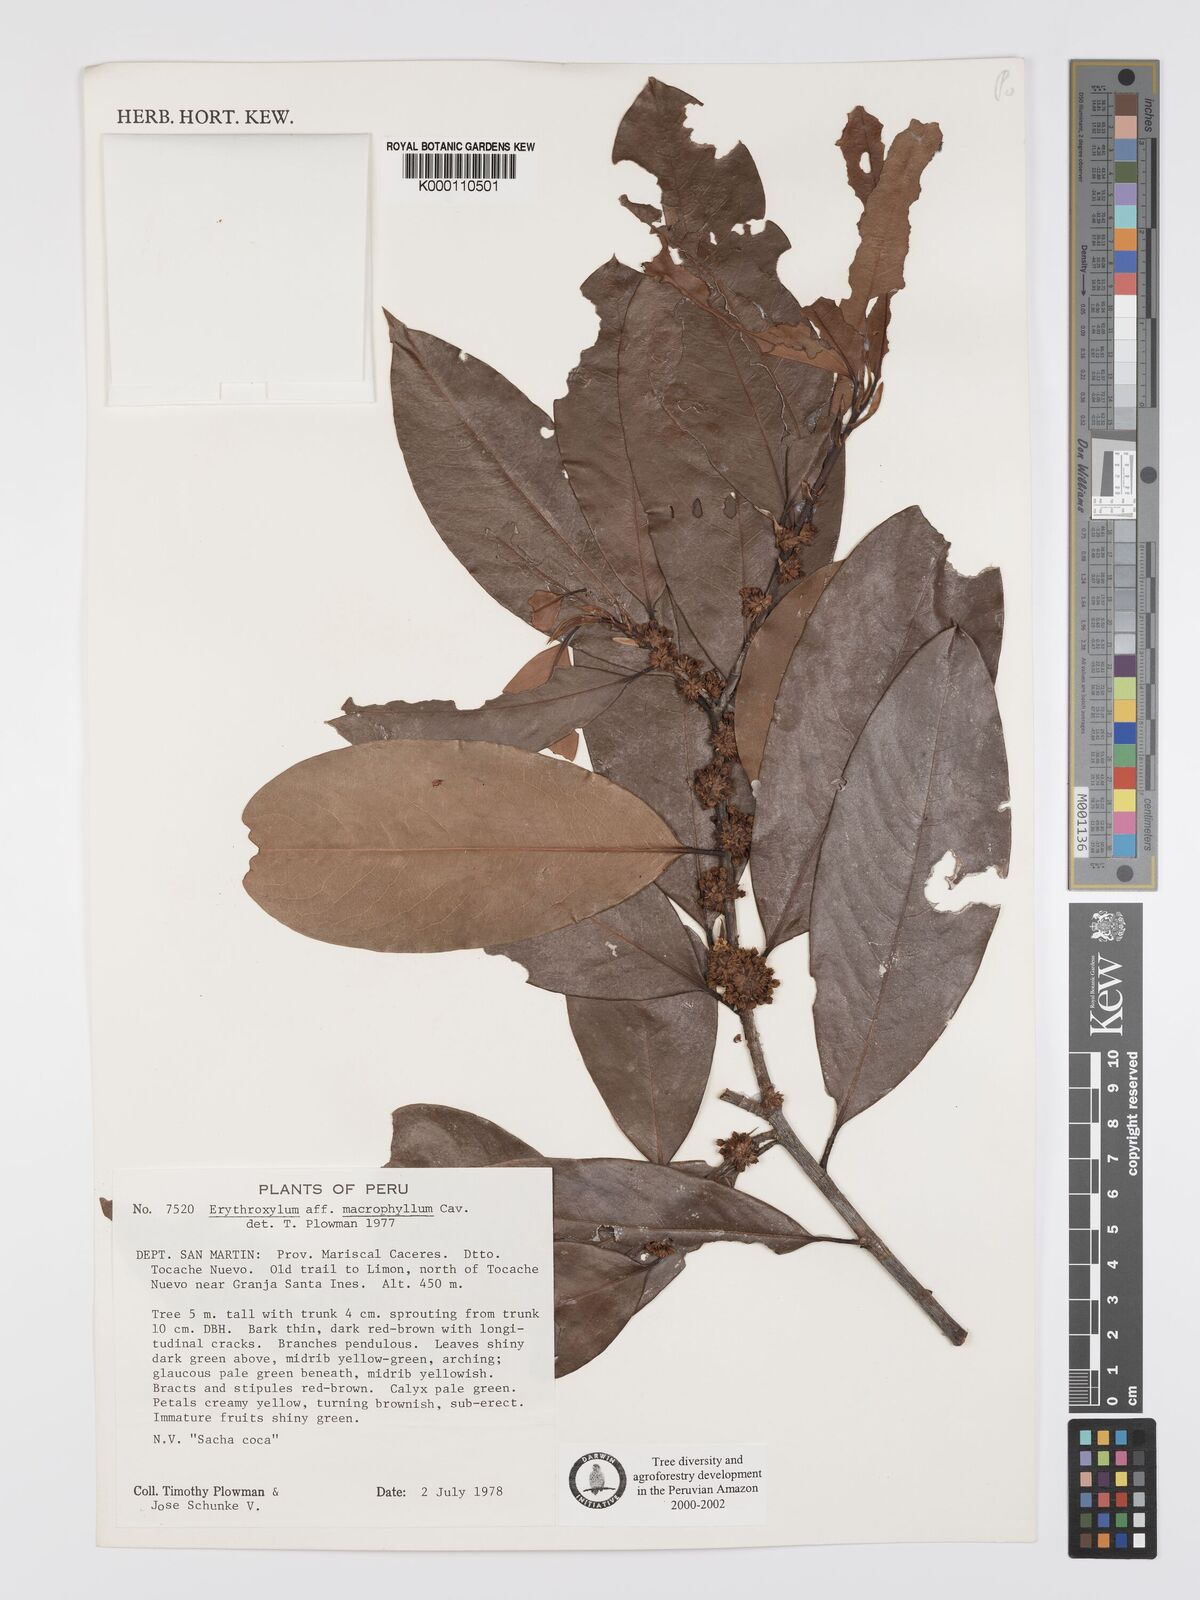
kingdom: Plantae
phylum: Tracheophyta
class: Magnoliopsida
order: Malpighiales
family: Erythroxylaceae
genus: Erythroxylum
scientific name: Erythroxylum
